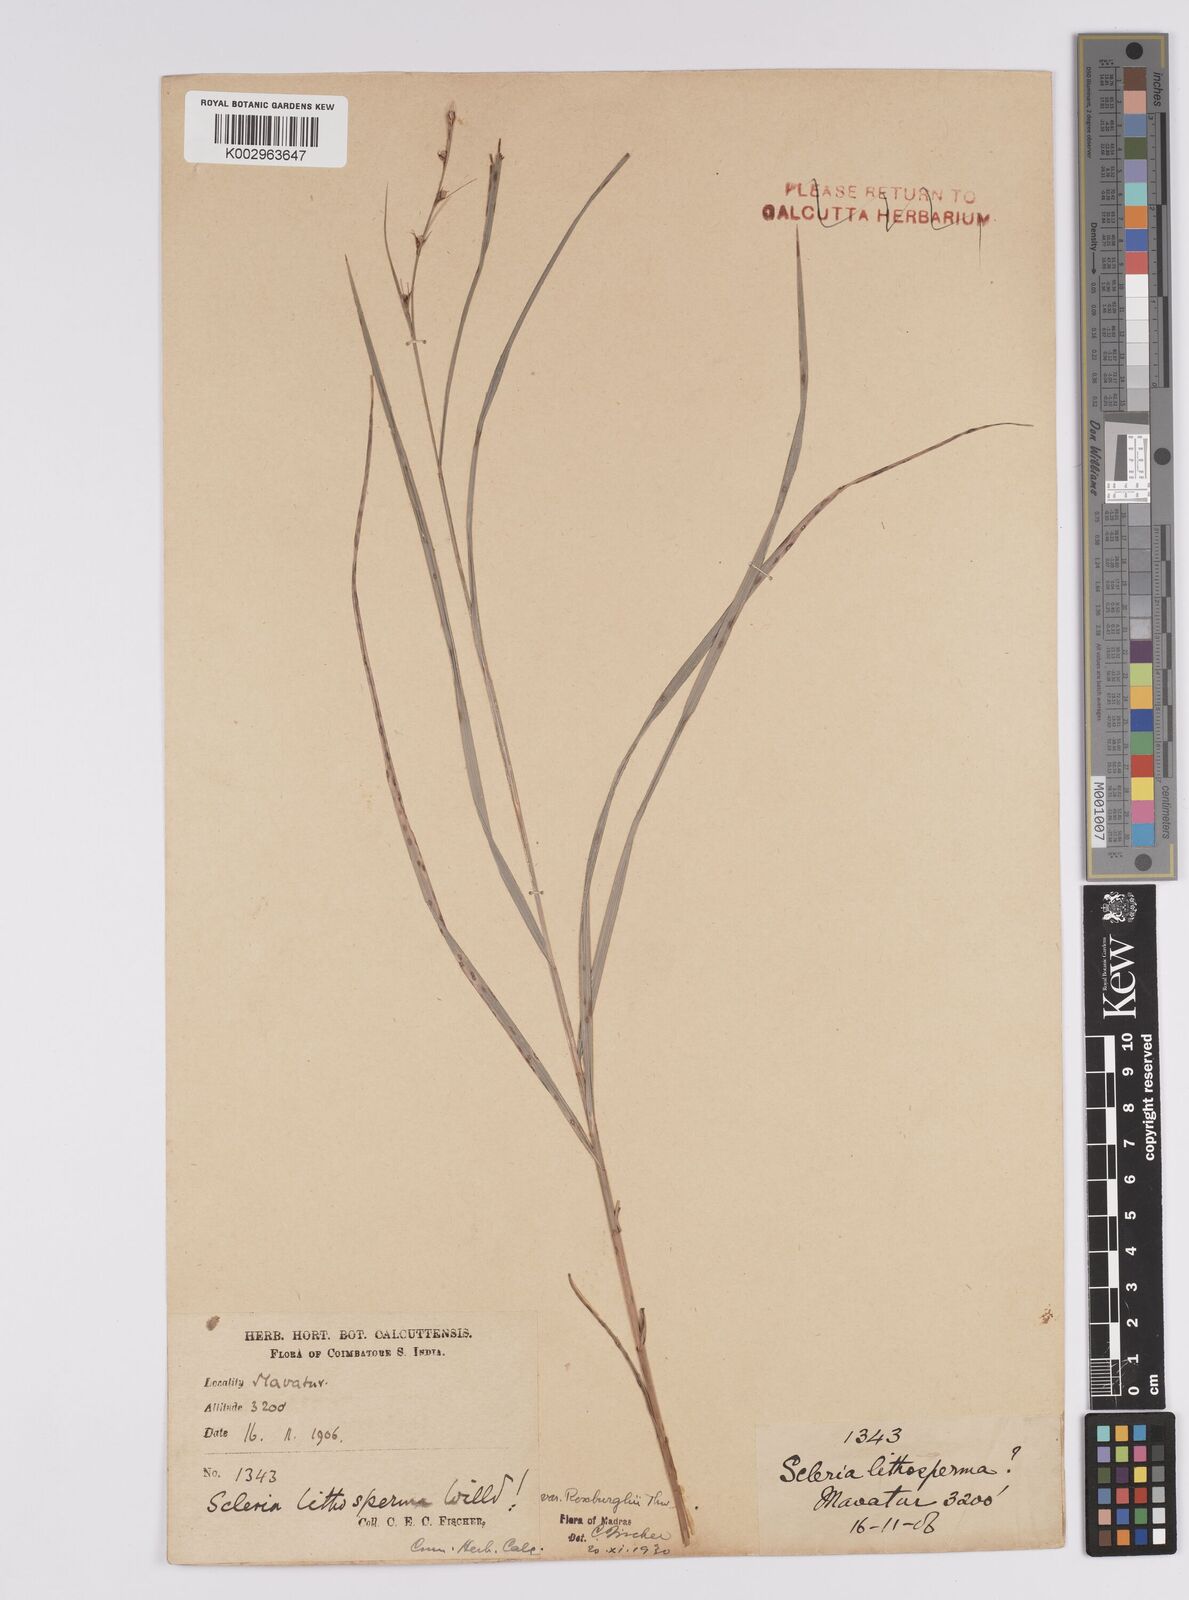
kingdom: Plantae
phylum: Tracheophyta
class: Liliopsida
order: Poales
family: Cyperaceae
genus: Scleria
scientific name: Scleria lithosperma
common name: Florida keys nut-rush
